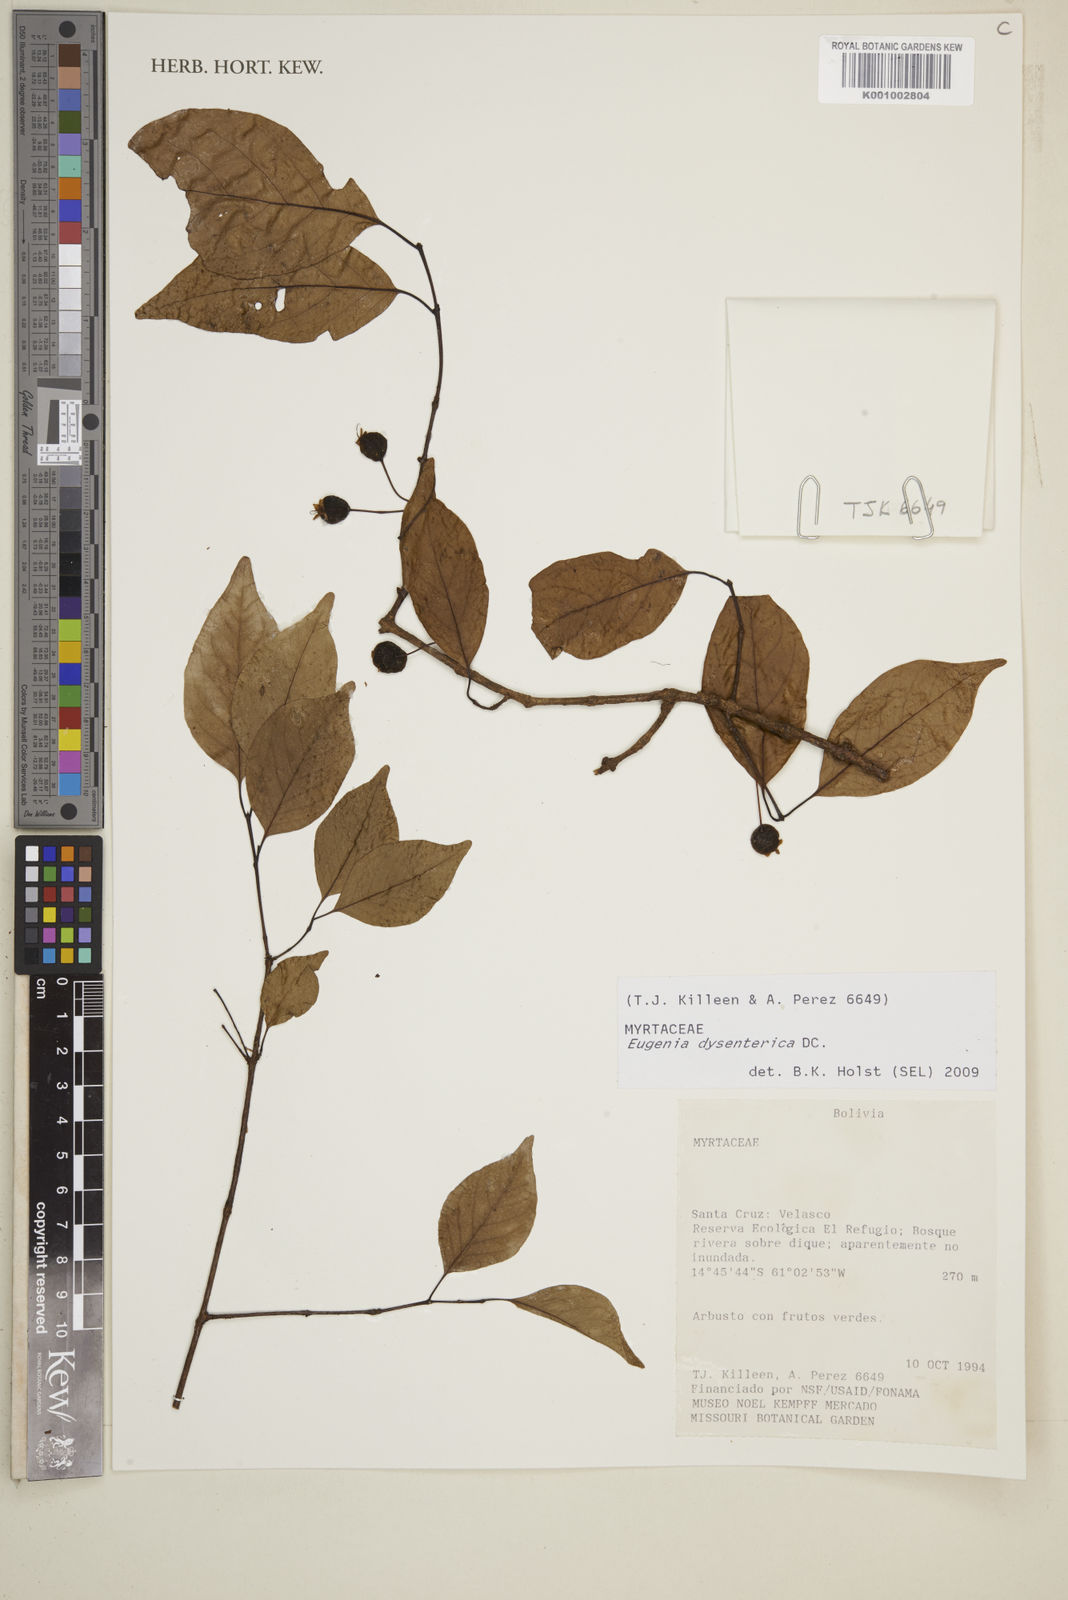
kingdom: Plantae
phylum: Tracheophyta
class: Magnoliopsida
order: Myrtales
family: Myrtaceae
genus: Eugenia
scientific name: Eugenia dysenterica
